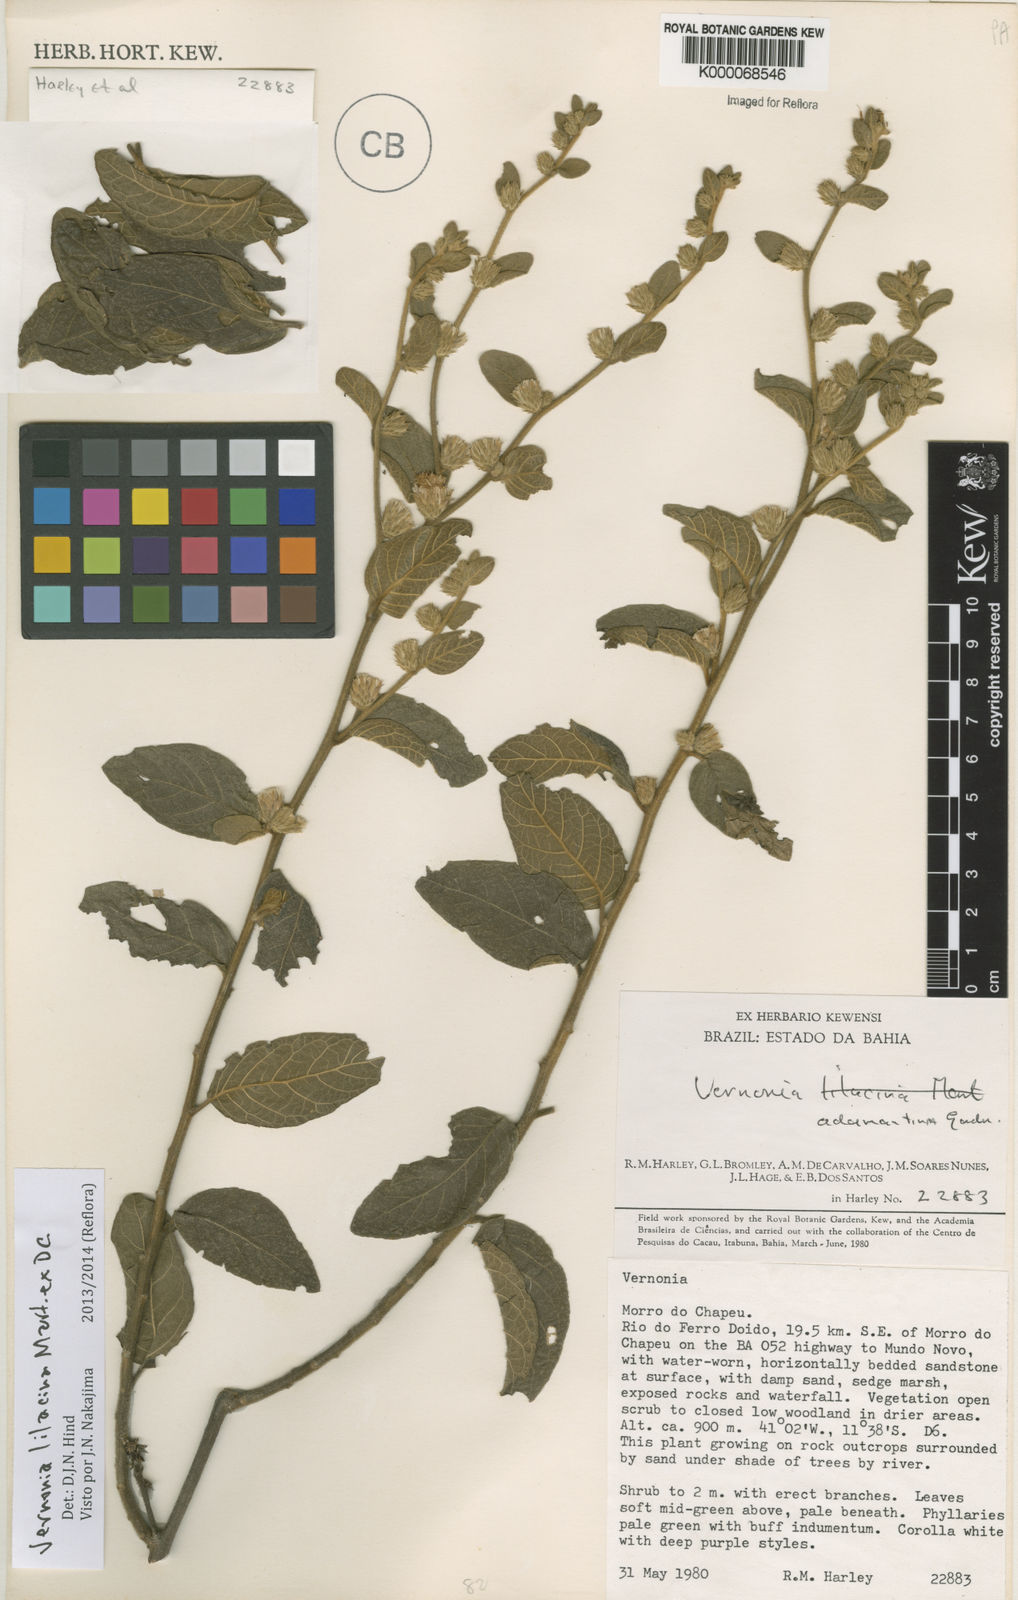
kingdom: Plantae
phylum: Tracheophyta
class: Magnoliopsida
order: Asterales
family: Asteraceae
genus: Vernonia
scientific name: Vernonia
